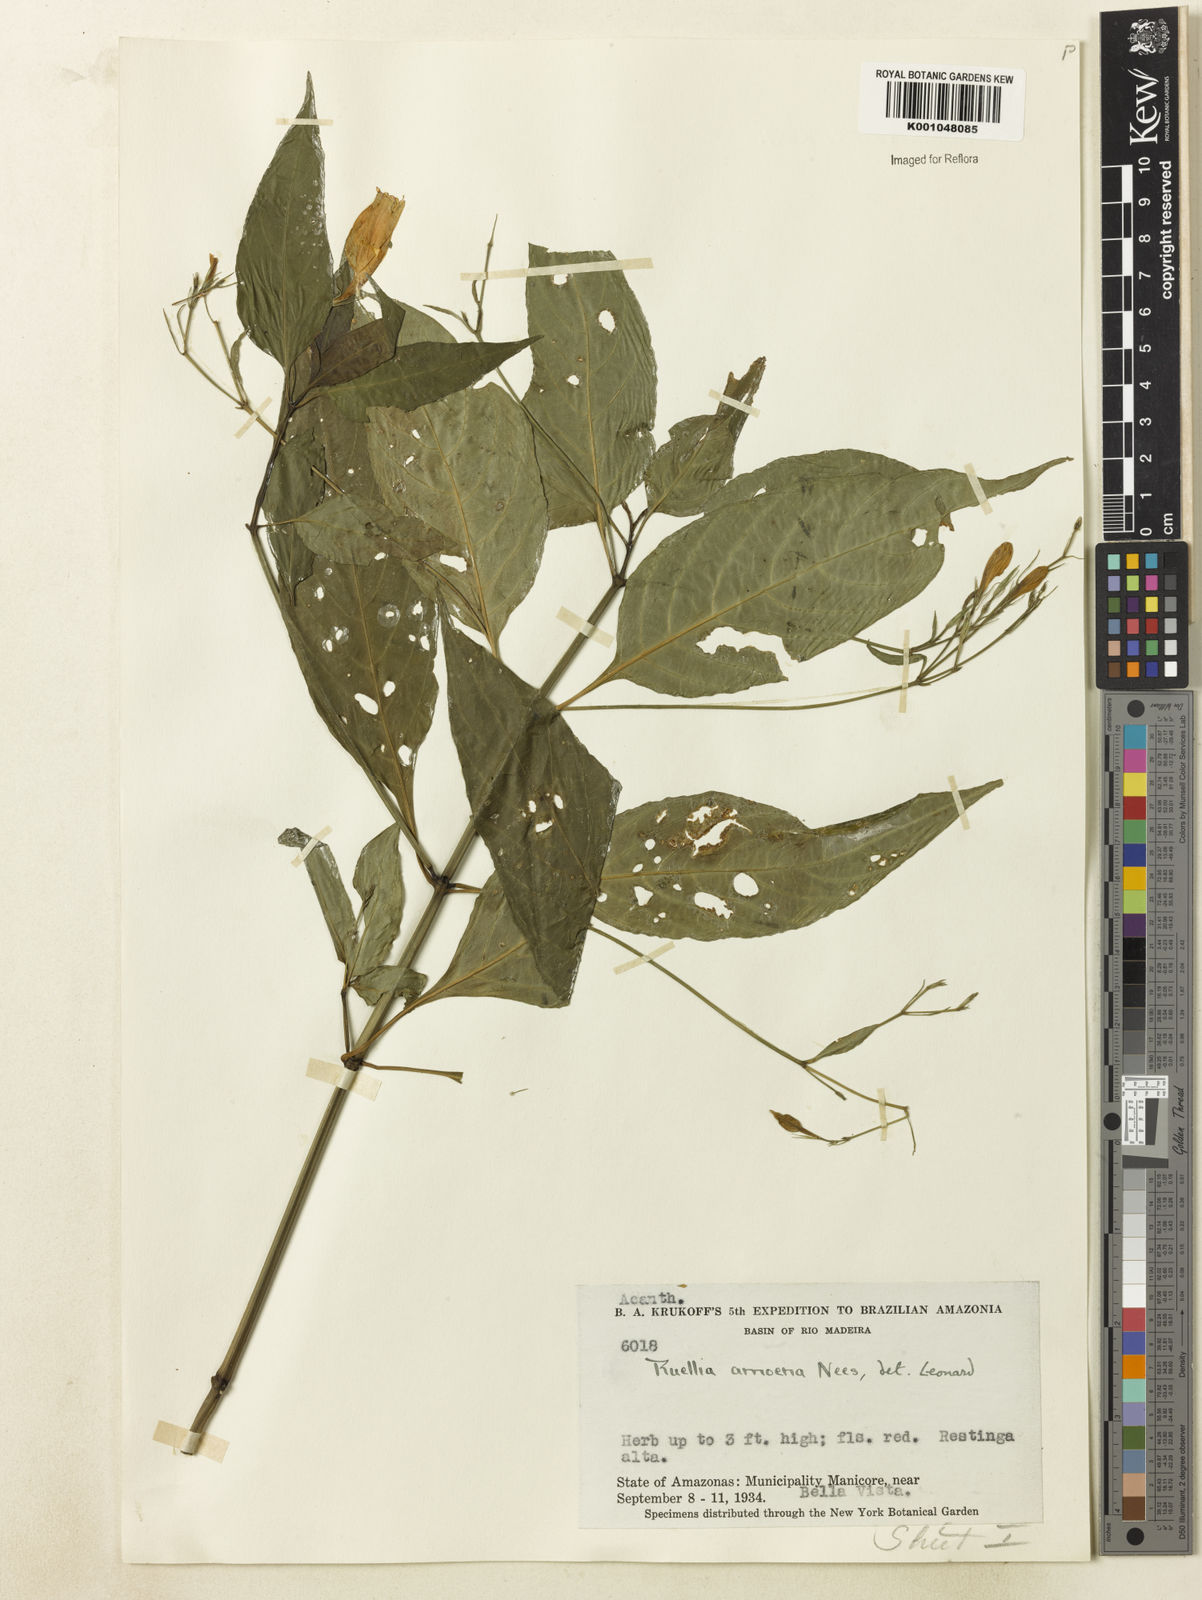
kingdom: Plantae
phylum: Tracheophyta
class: Magnoliopsida
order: Lamiales
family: Acanthaceae
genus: Ruellia
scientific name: Ruellia brevifolia
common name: Tropical wild petunia
